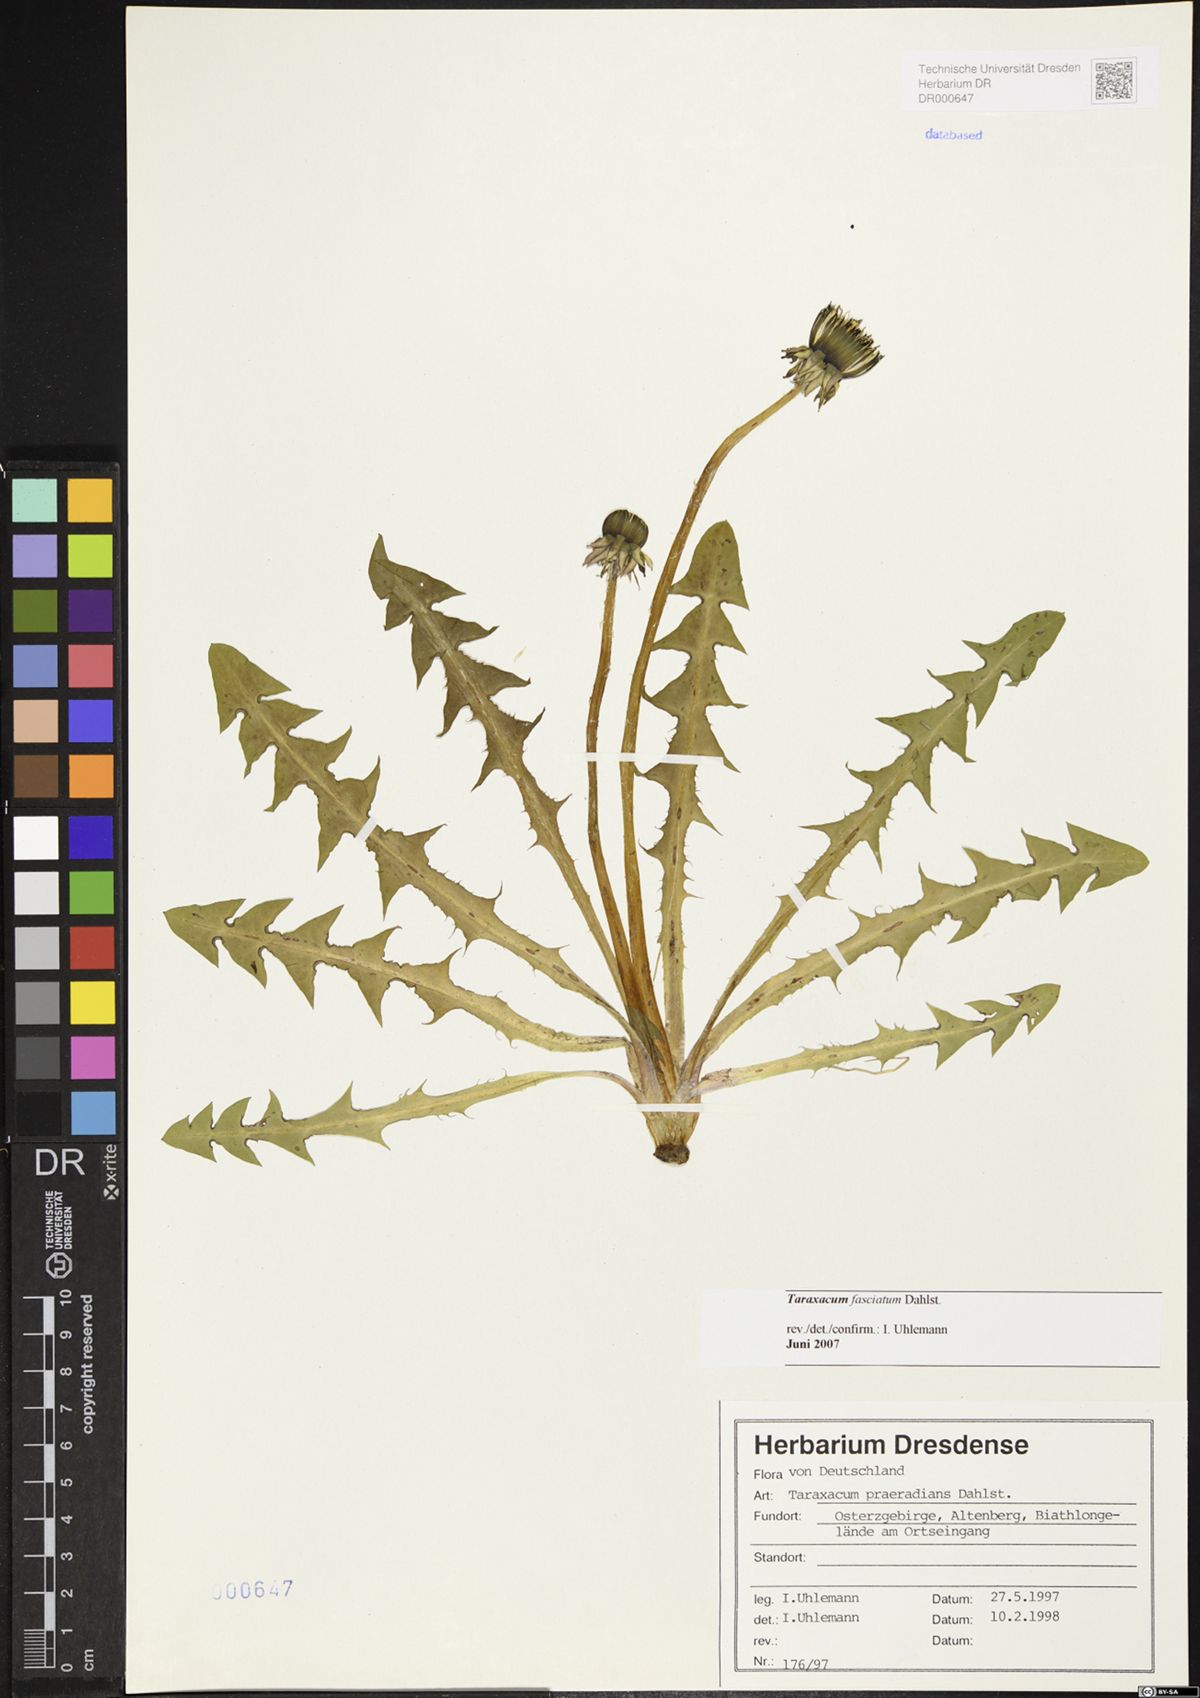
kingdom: Plantae
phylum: Tracheophyta
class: Magnoliopsida
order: Asterales
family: Asteraceae
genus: Taraxacum
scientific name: Taraxacum fasciatum
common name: Dense-bracted dandelion
